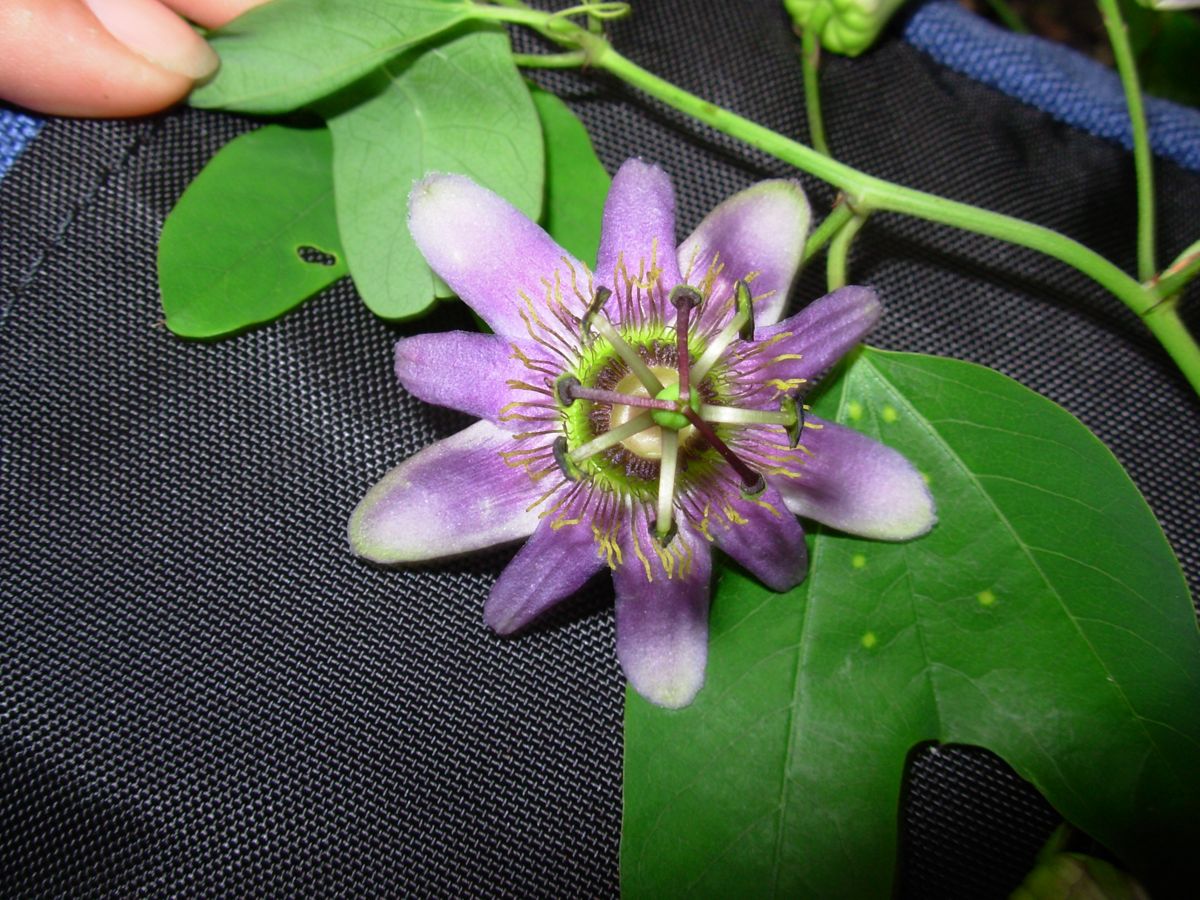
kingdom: Plantae
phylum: Tracheophyta
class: Magnoliopsida
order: Malpighiales
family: Passifloraceae
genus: Passiflora
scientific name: Passiflora standleyi
